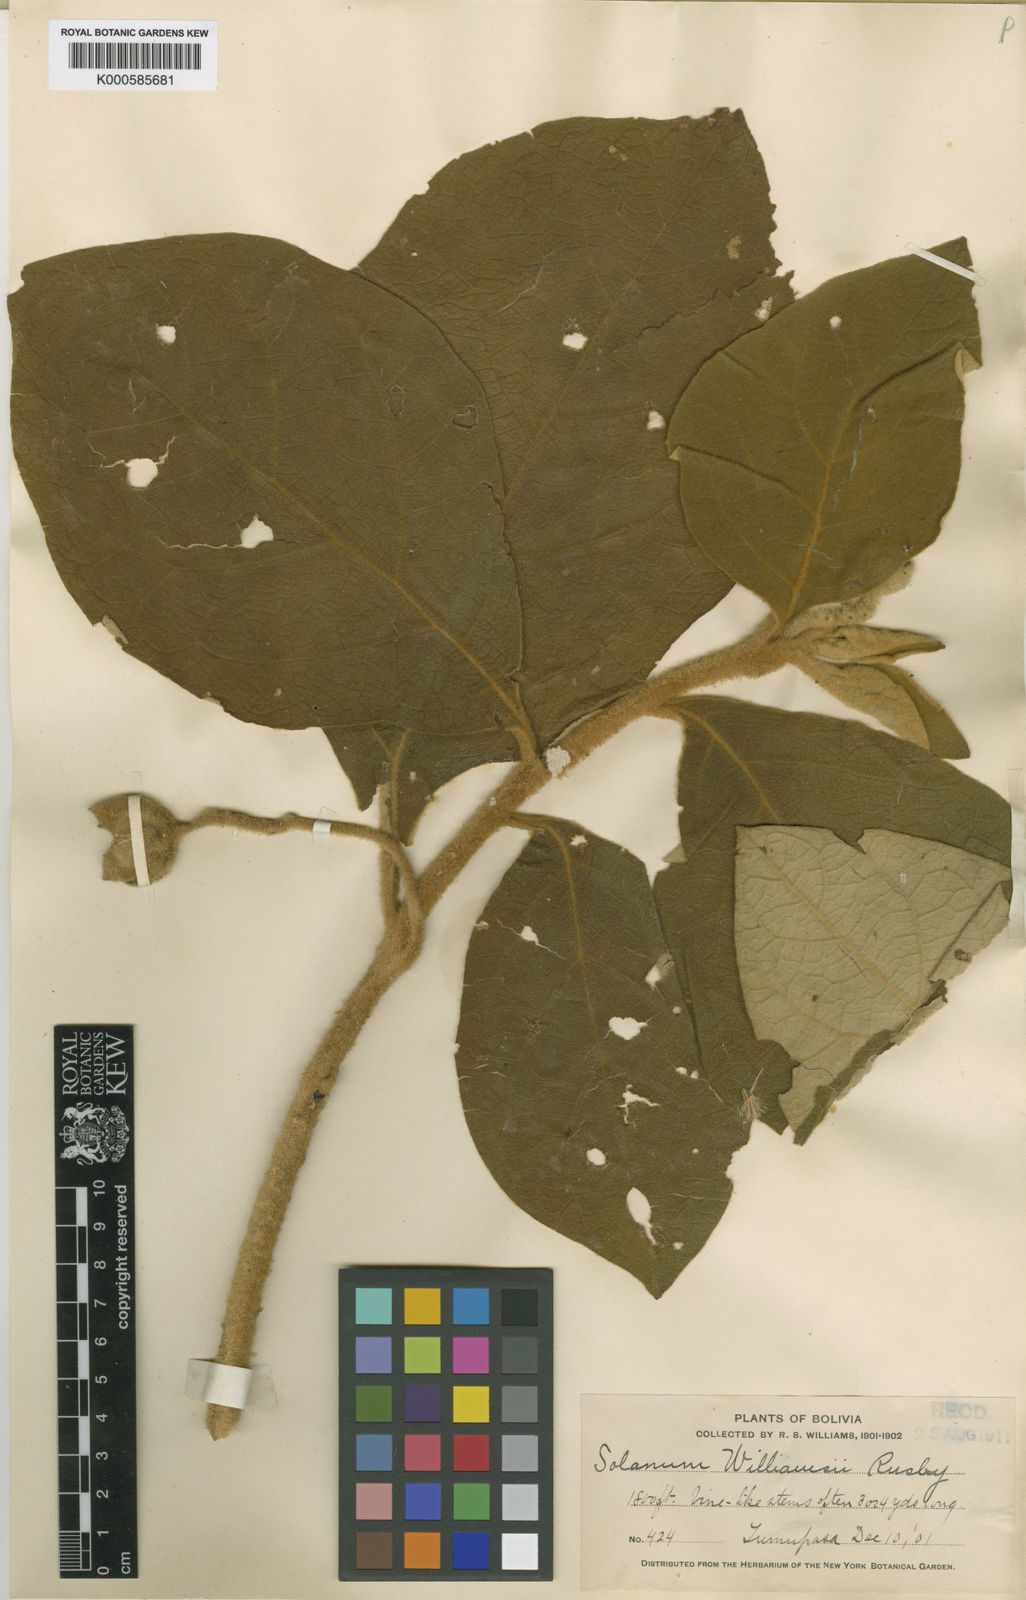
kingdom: Plantae
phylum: Tracheophyta
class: Magnoliopsida
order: Solanales
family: Solanaceae
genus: Solanum
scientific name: Solanum rhytidoandrum
